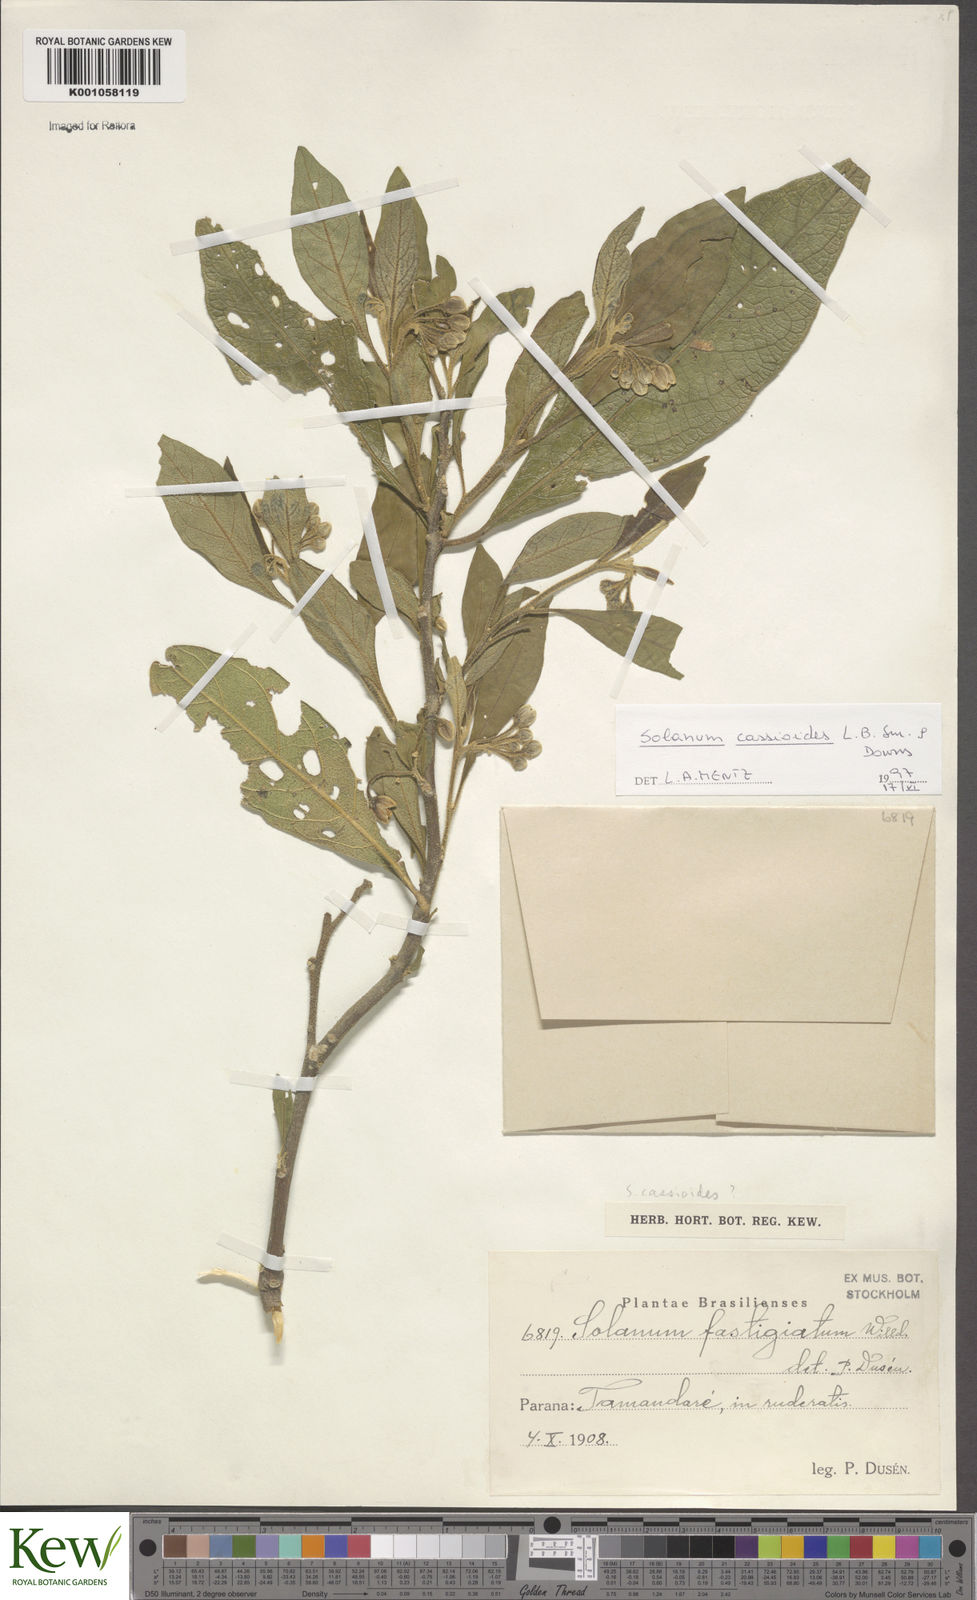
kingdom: Plantae
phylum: Tracheophyta
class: Magnoliopsida
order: Solanales
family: Solanaceae
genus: Solanum
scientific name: Solanum cassioides
